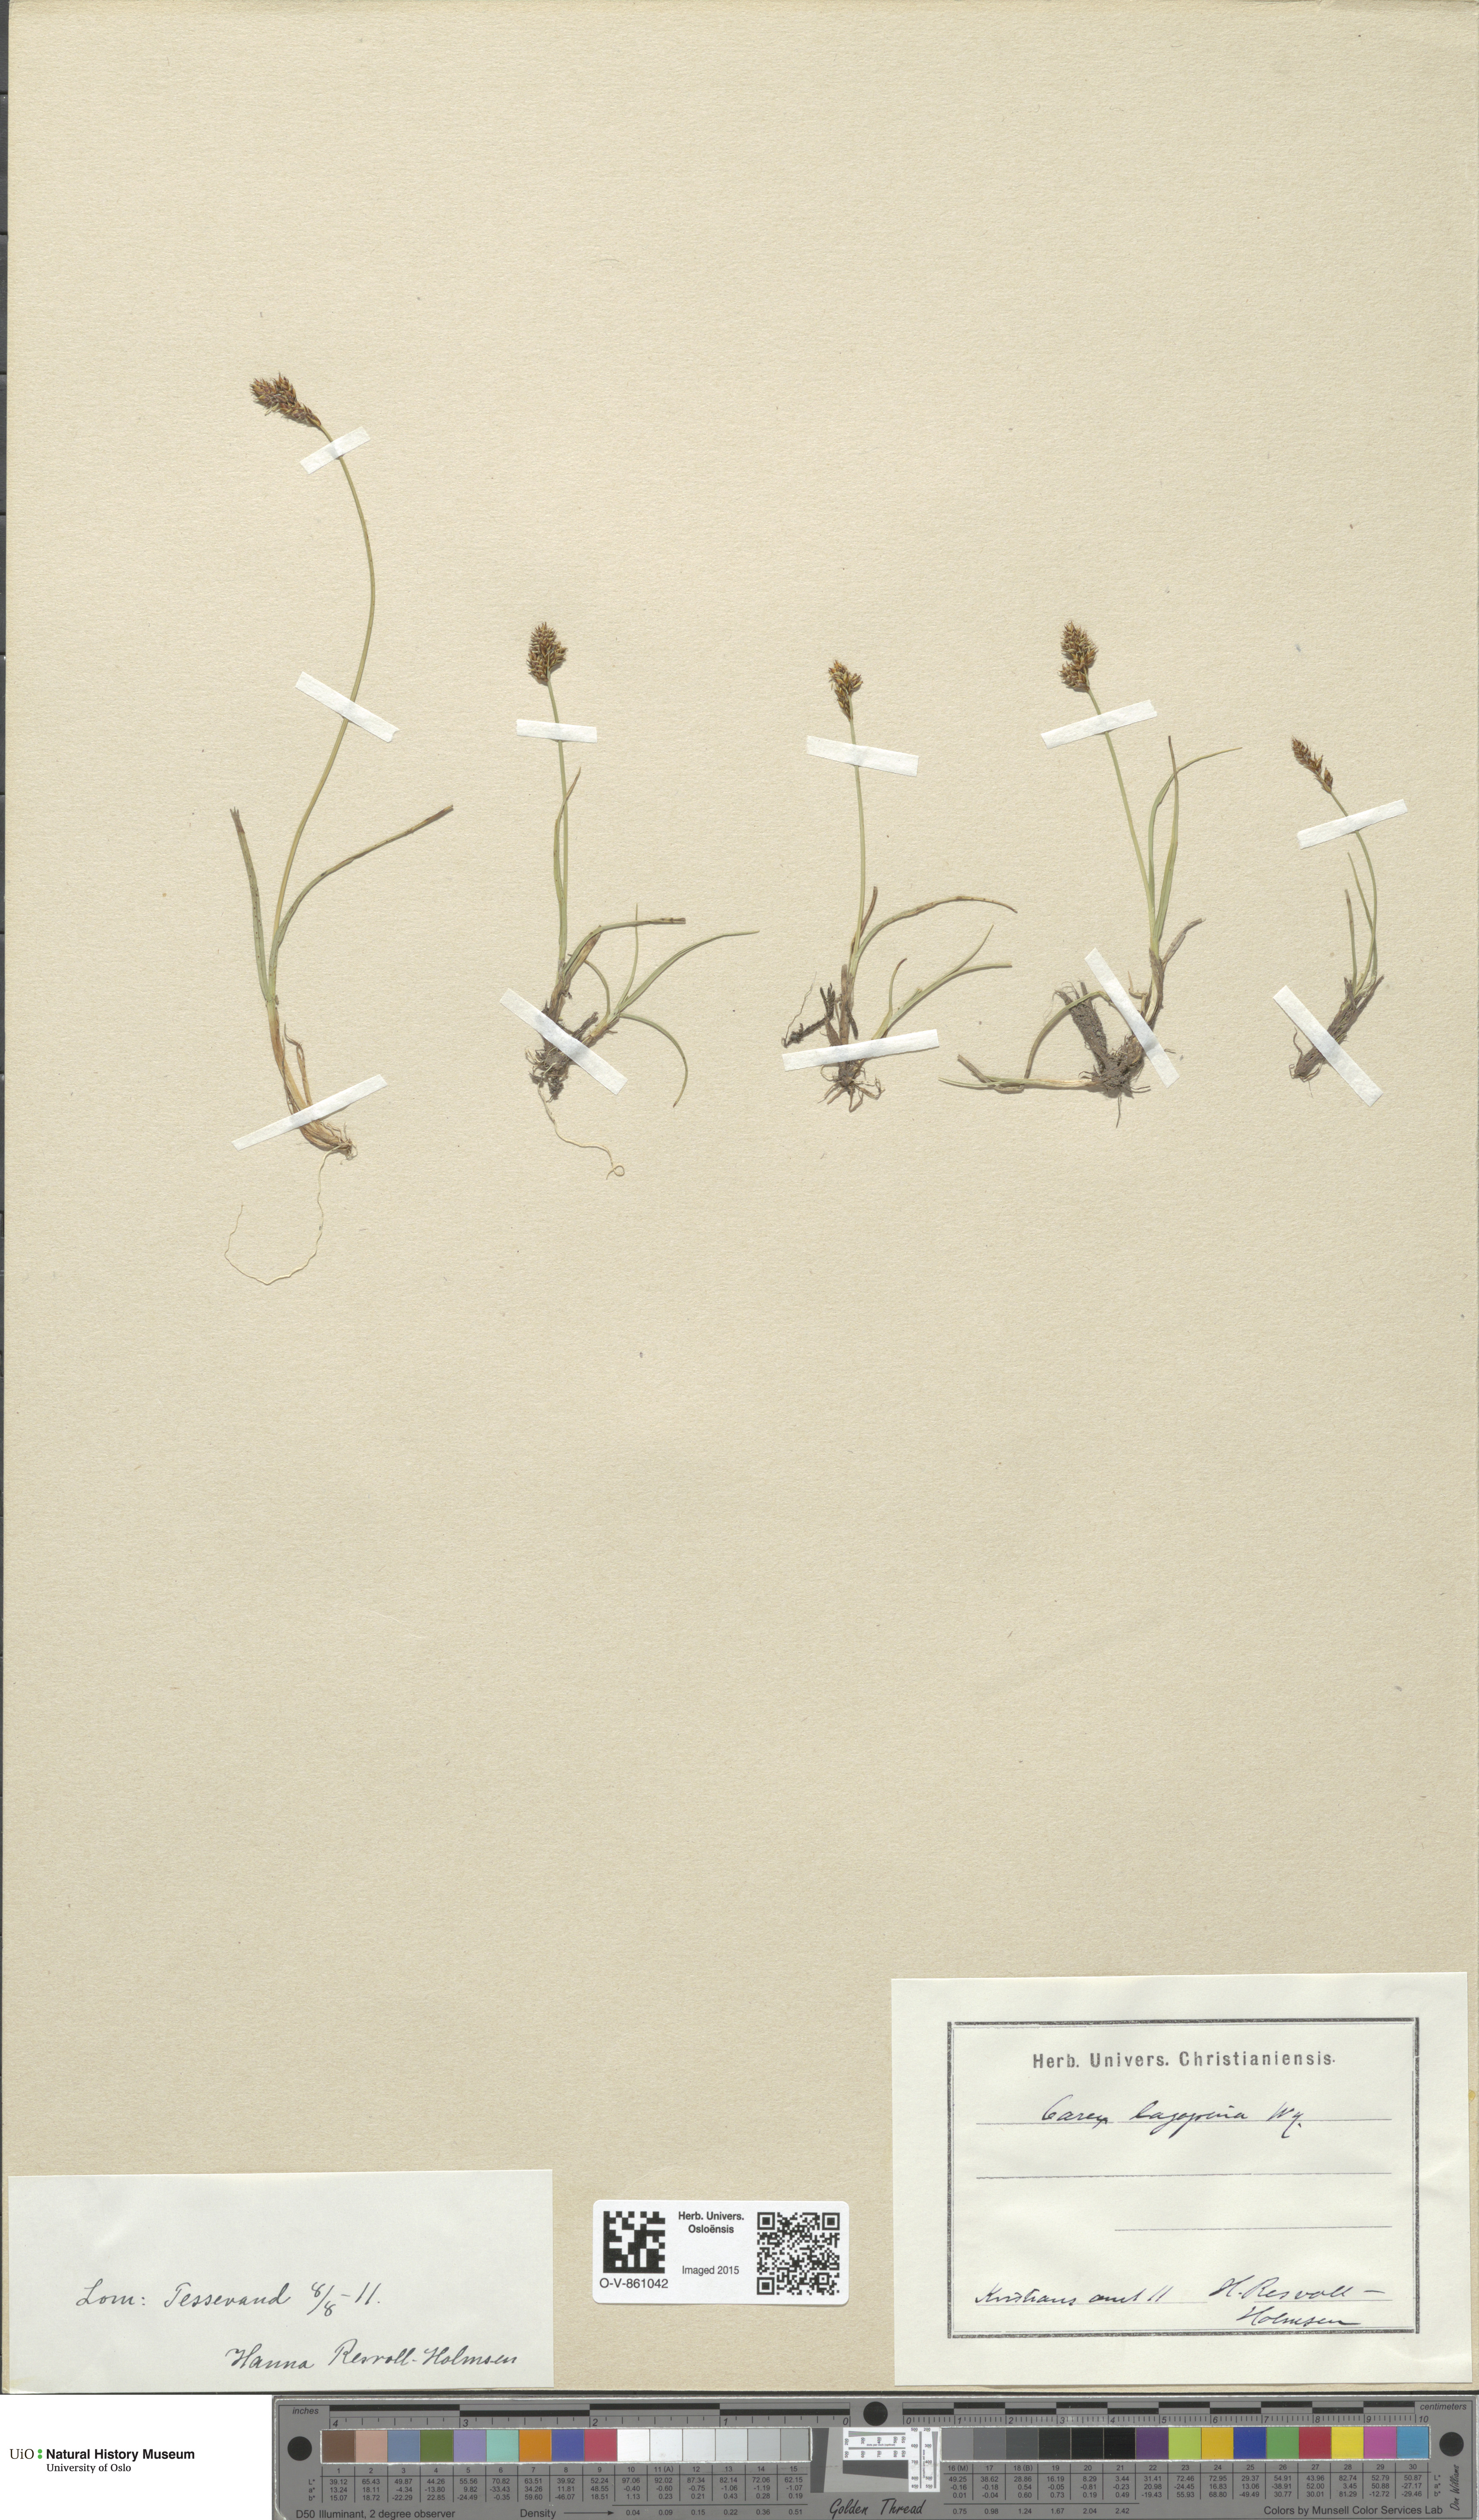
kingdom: Plantae
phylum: Tracheophyta
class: Liliopsida
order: Poales
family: Cyperaceae
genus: Carex
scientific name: Carex lachenalii
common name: Hare's-foot sedge
